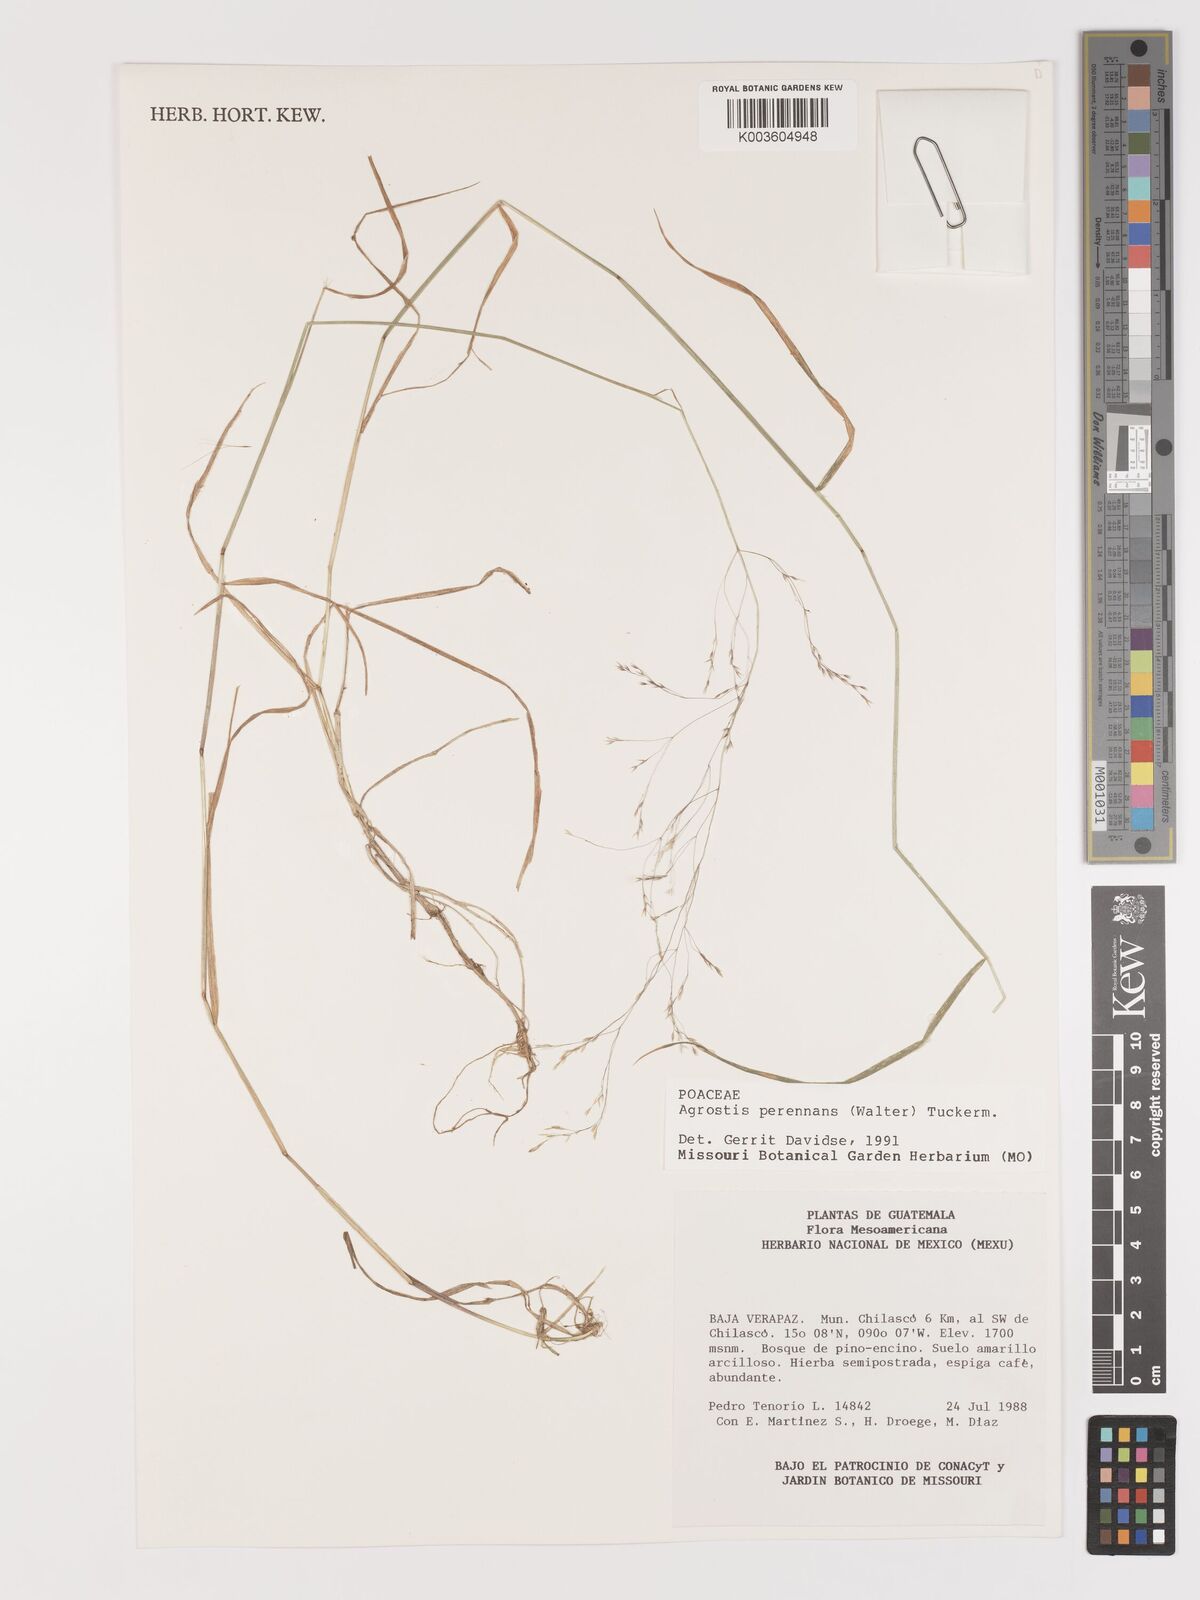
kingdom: Plantae
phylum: Tracheophyta
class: Liliopsida
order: Poales
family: Poaceae
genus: Agrostis
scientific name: Agrostis perennans
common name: Autumn bent
